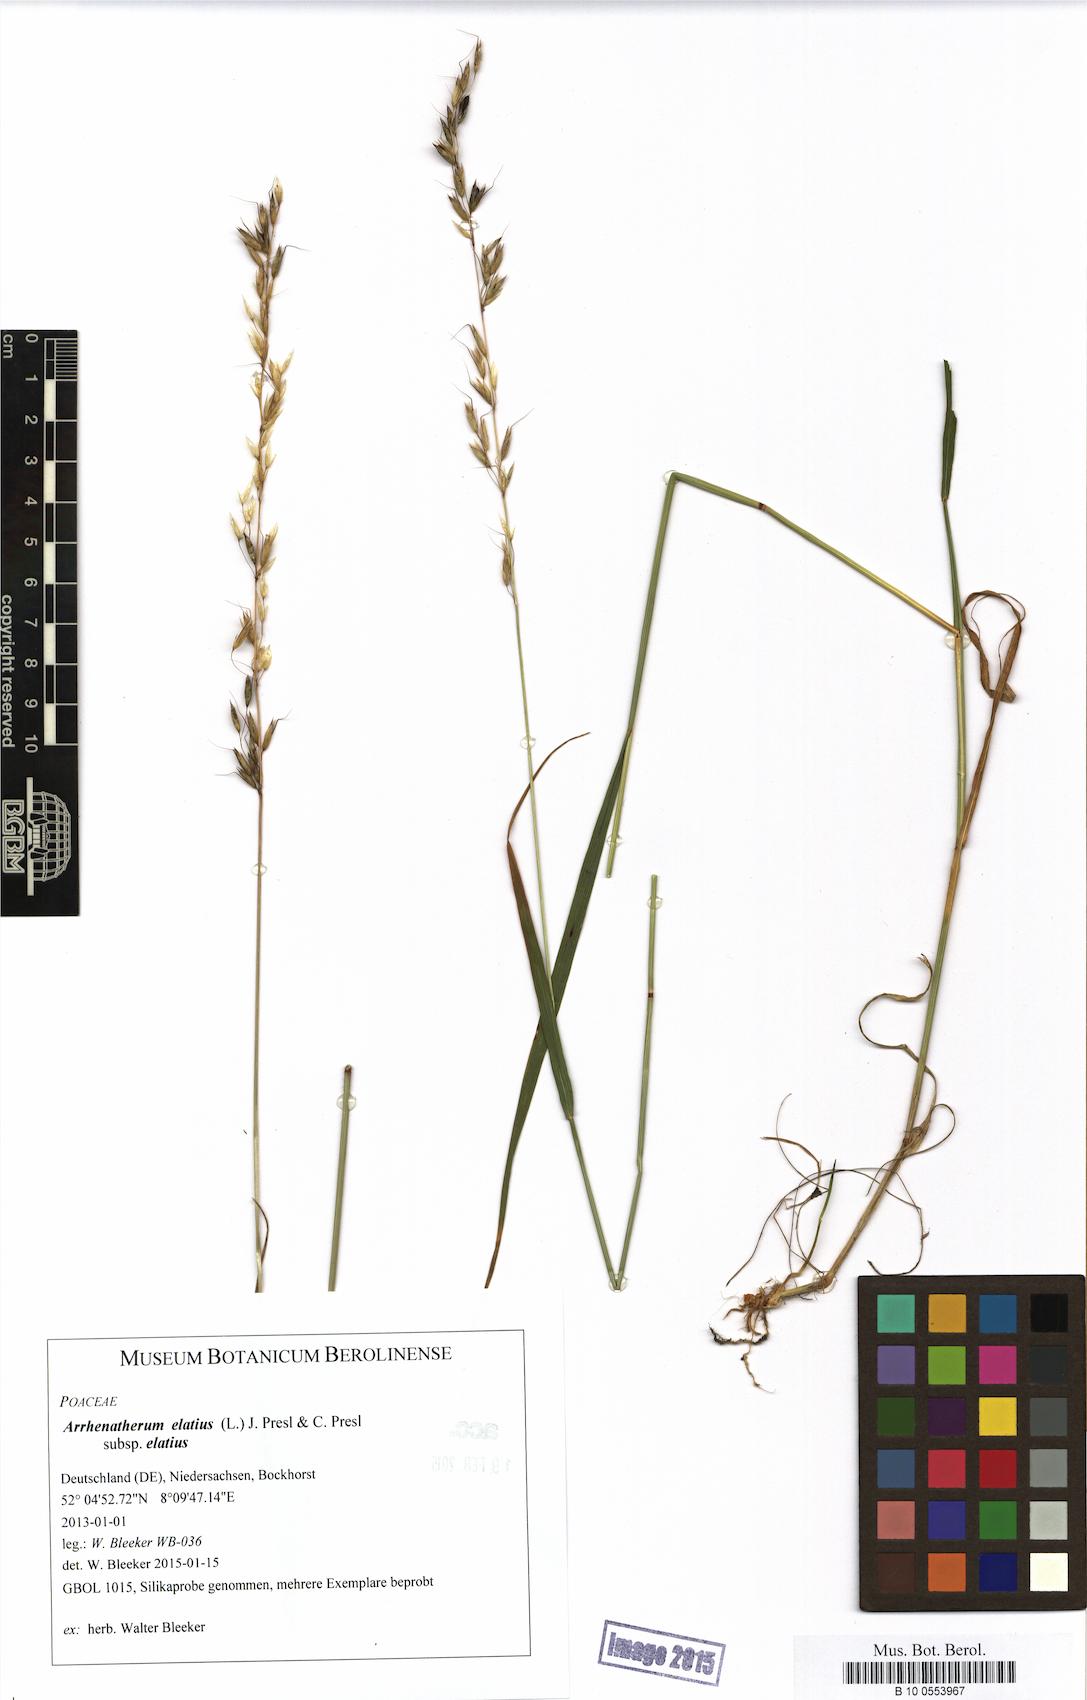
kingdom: Plantae
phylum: Tracheophyta
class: Liliopsida
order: Poales
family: Poaceae
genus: Arrhenatherum
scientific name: Arrhenatherum elatius
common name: Tall oatgrass
